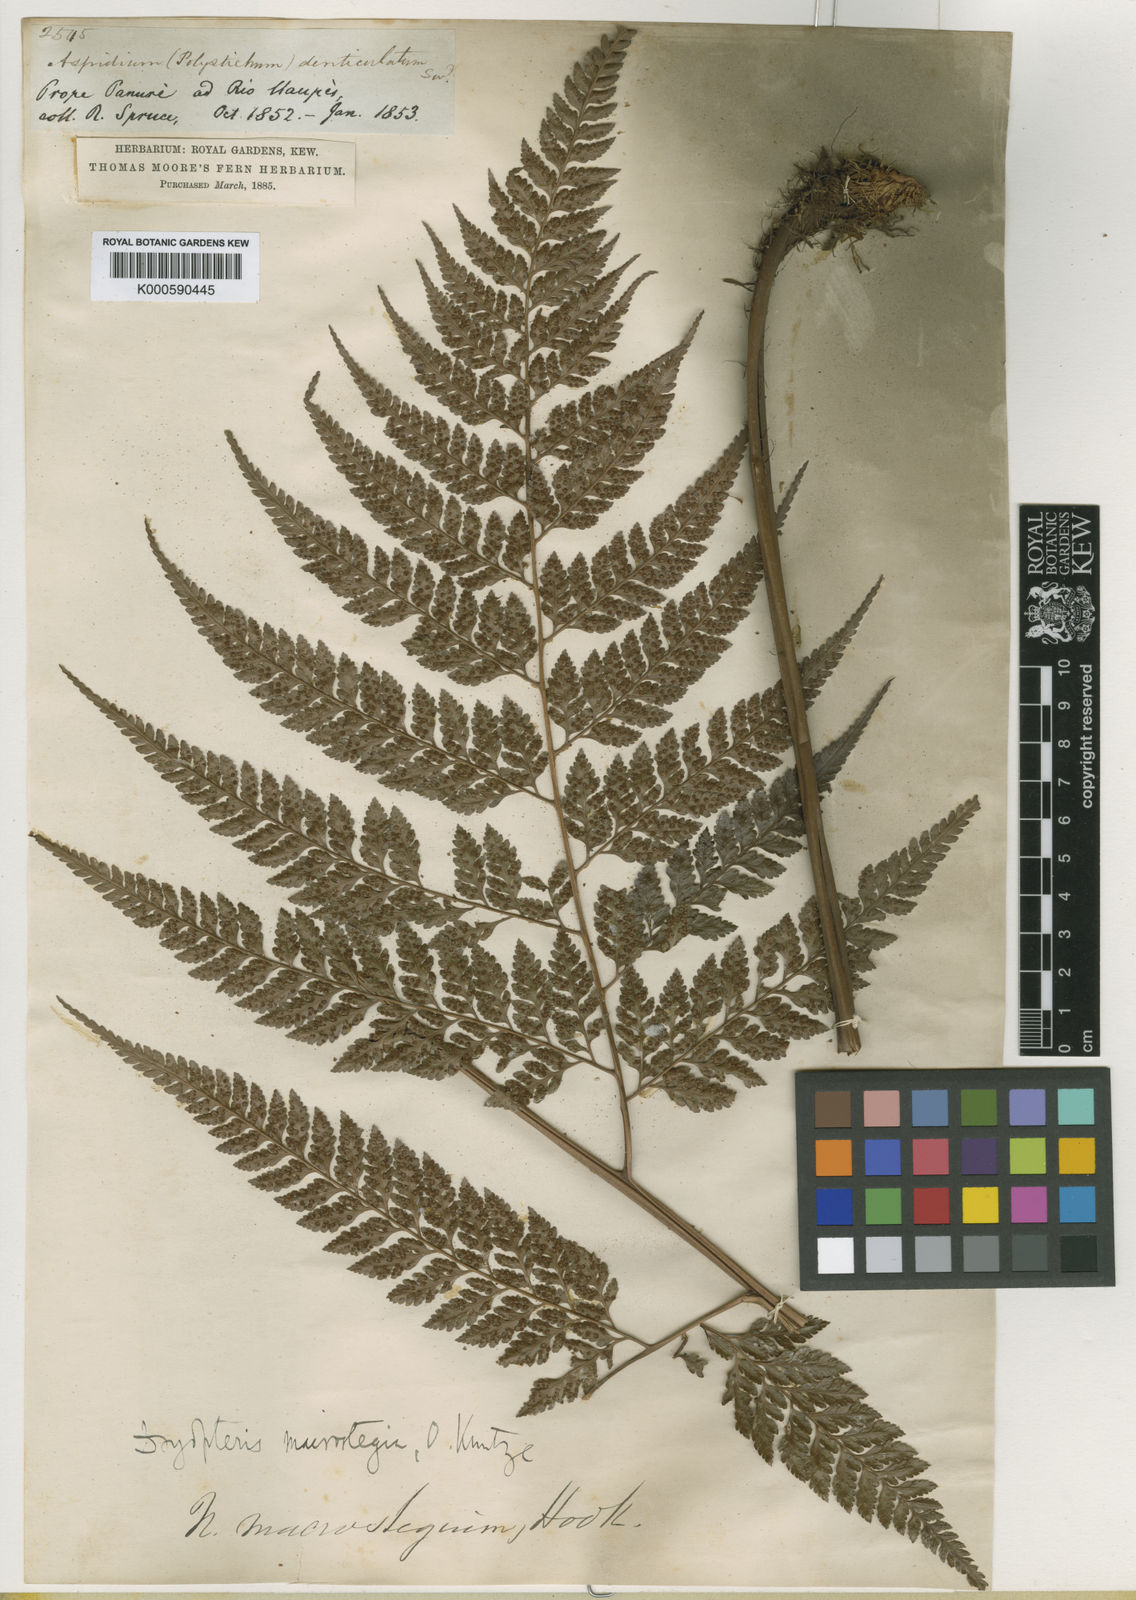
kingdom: Plantae
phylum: Tracheophyta
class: Polypodiopsida
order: Polypodiales
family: Dryopteridaceae
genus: Olfersia
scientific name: Olfersia macrostegia
